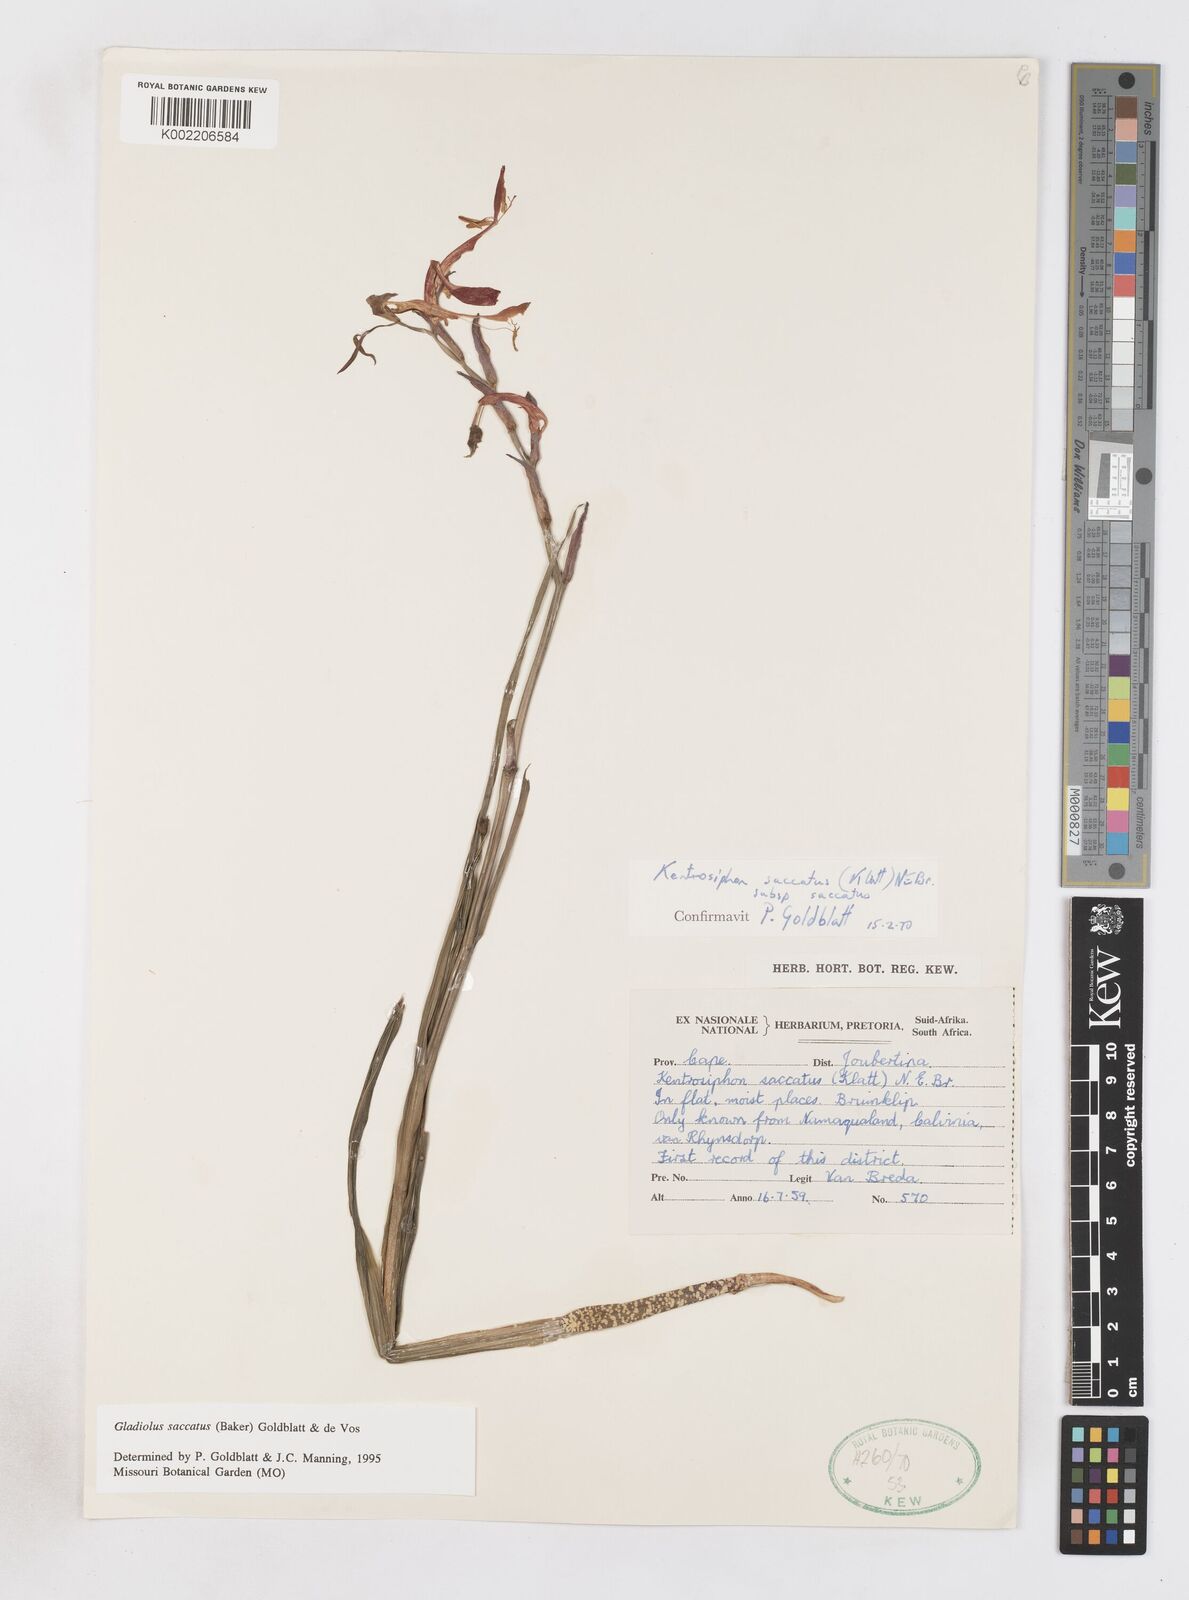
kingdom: Plantae
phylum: Tracheophyta
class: Liliopsida
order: Asparagales
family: Iridaceae
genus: Gladiolus
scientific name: Gladiolus saccatus
